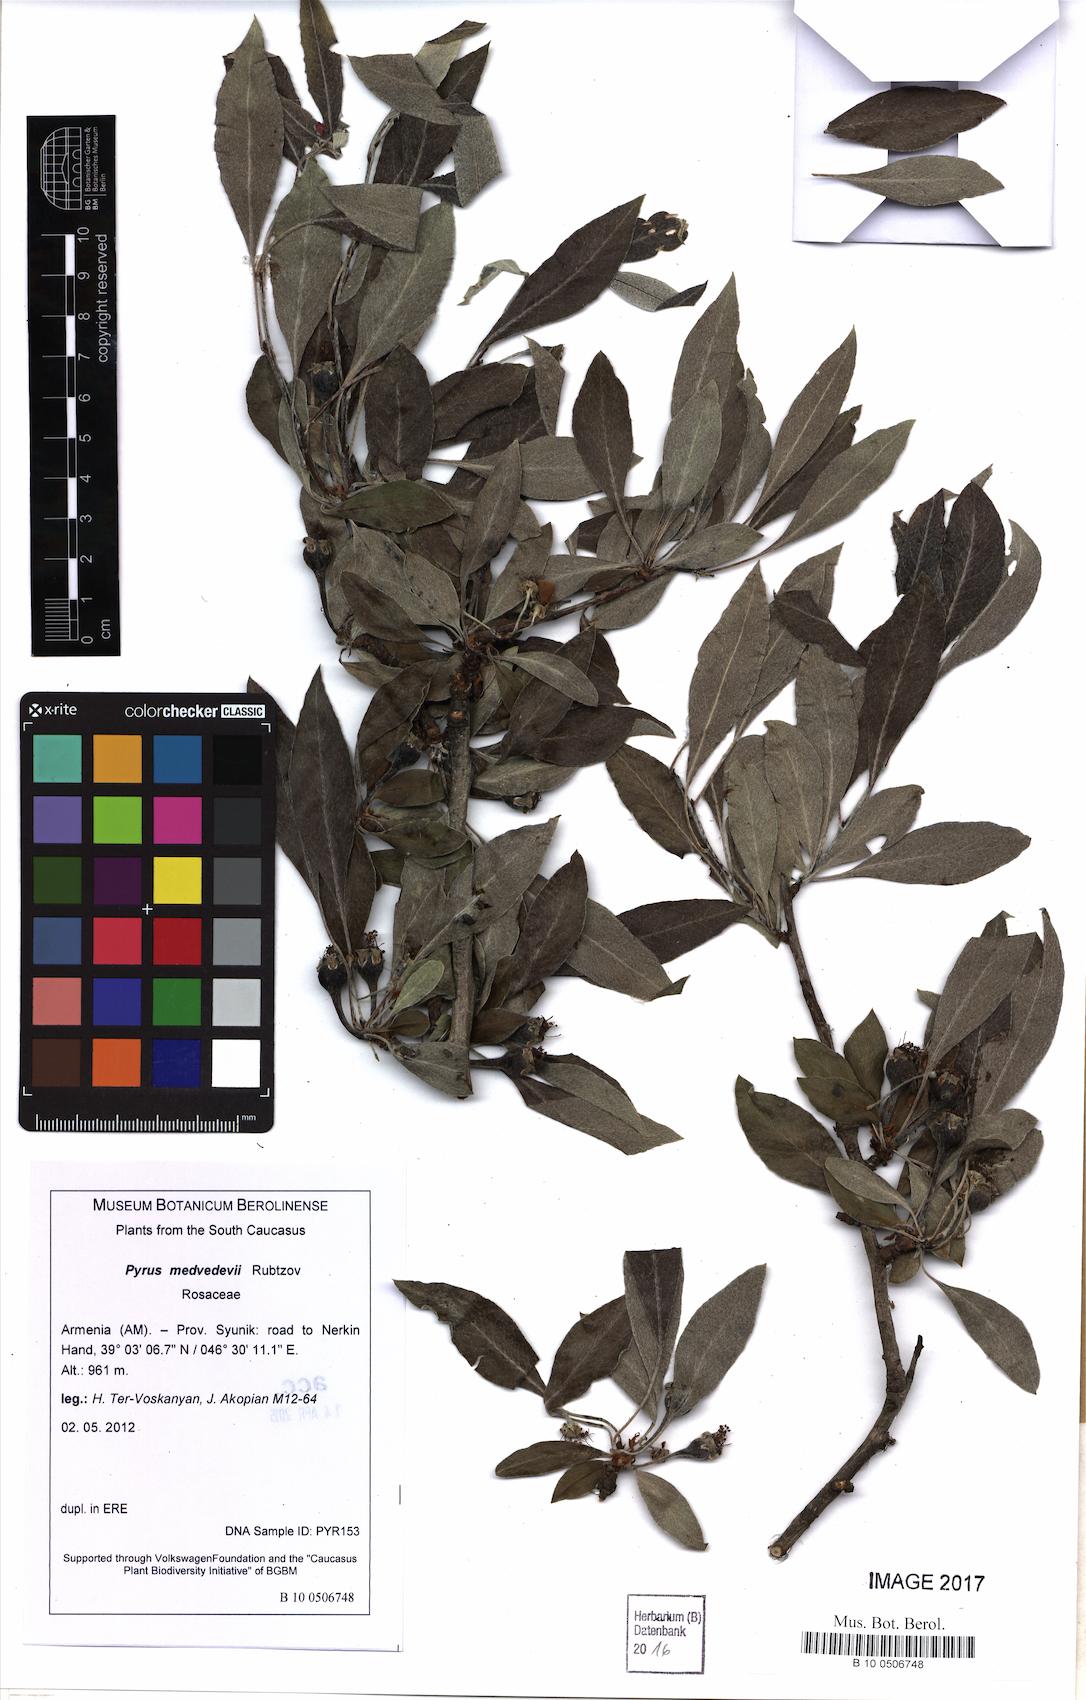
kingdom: Plantae
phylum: Tracheophyta
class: Magnoliopsida
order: Rosales
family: Rosaceae
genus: Pyrus
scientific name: Pyrus medvedevii
